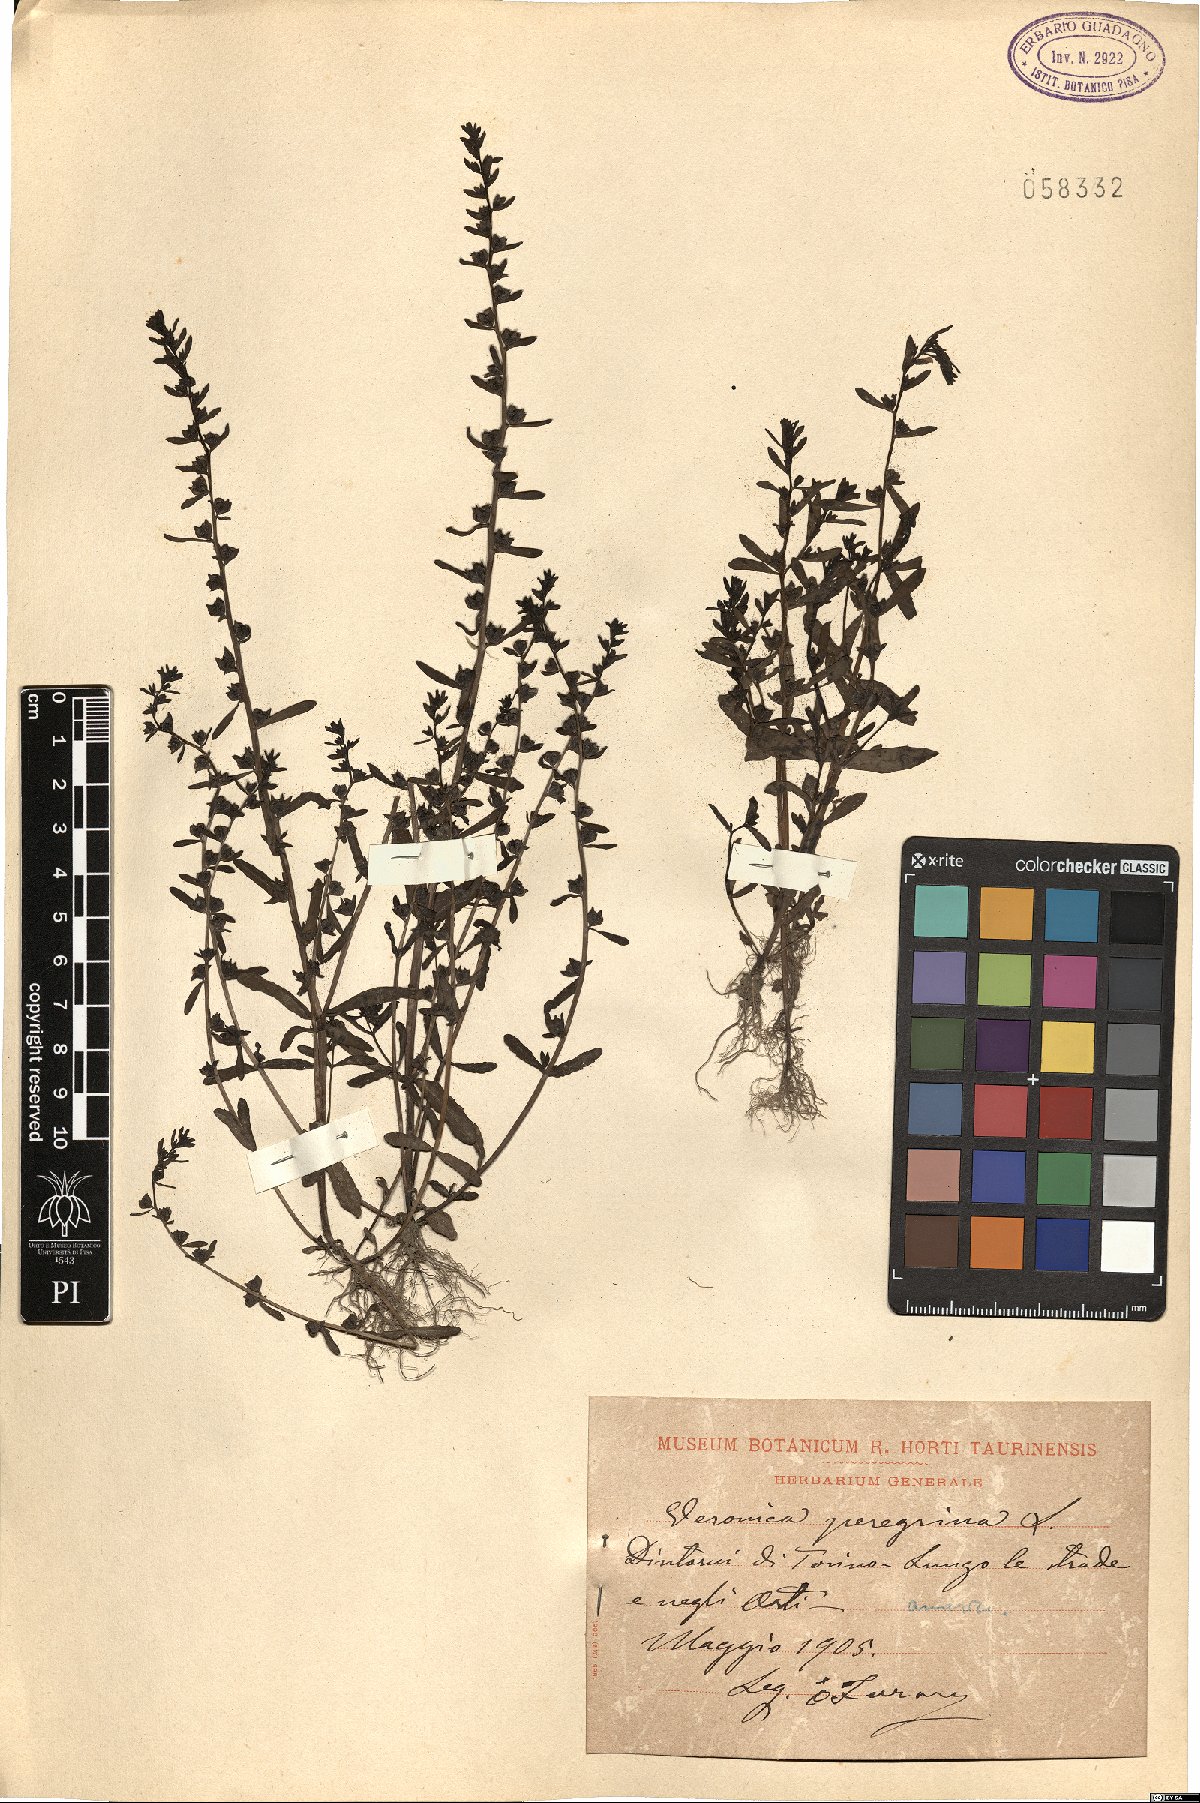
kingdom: Plantae
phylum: Tracheophyta
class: Magnoliopsida
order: Lamiales
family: Plantaginaceae
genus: Veronica
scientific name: Veronica peregrina
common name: Neckweed
